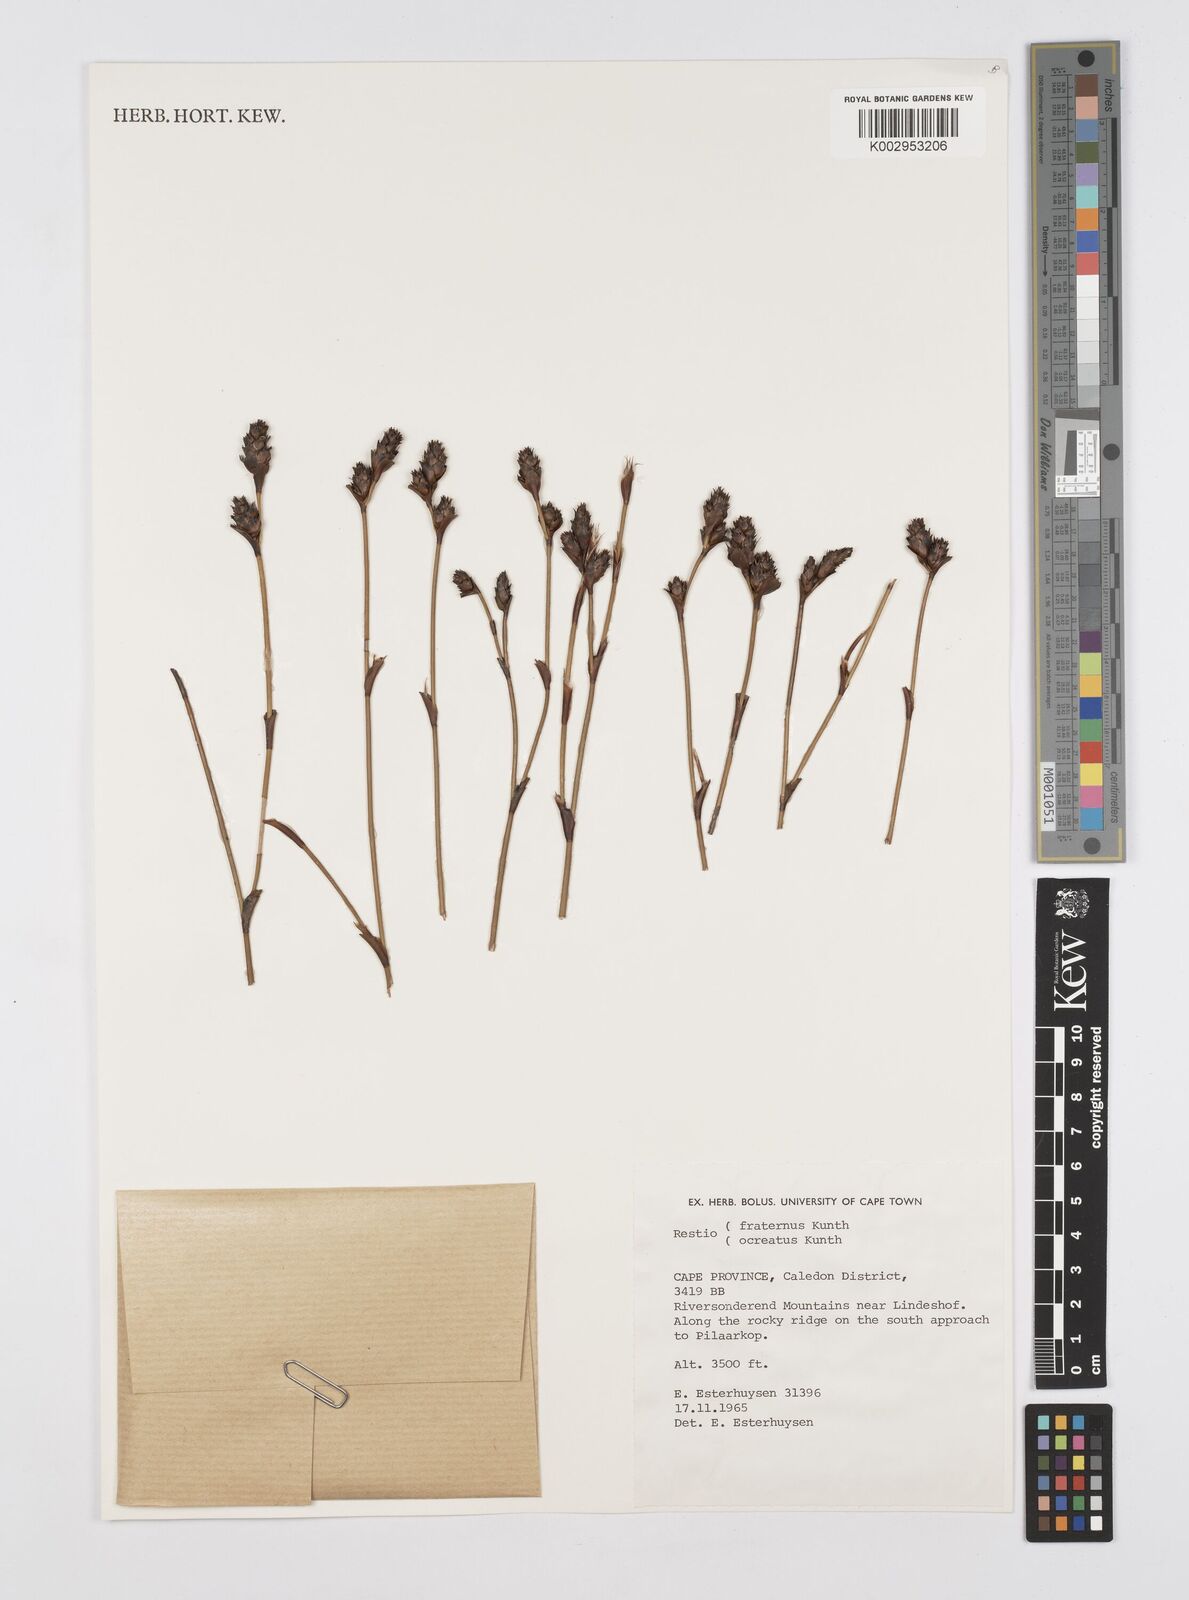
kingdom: Plantae
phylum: Tracheophyta
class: Liliopsida
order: Poales
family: Restionaceae
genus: Restio
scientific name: Restio fraternus
